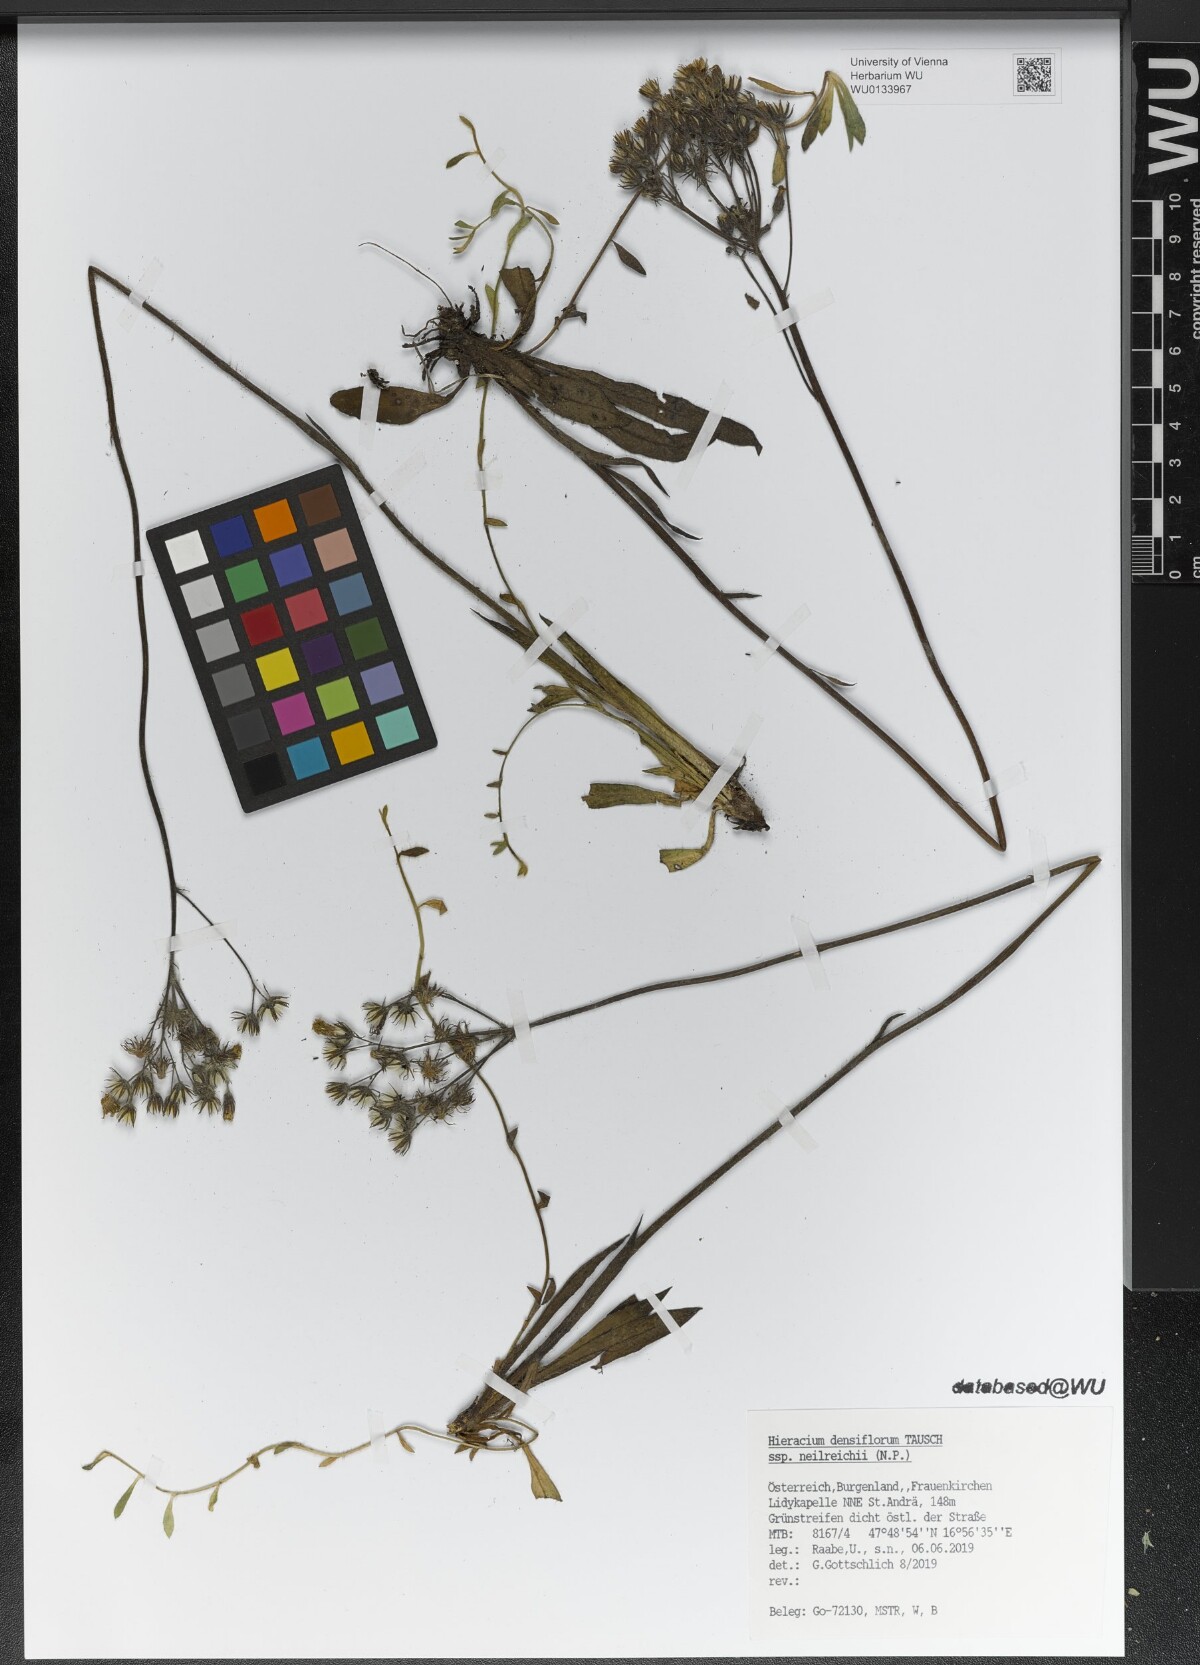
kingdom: Plantae
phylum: Tracheophyta
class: Magnoliopsida
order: Asterales
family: Asteraceae
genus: Pilosella
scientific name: Pilosella densiflora
